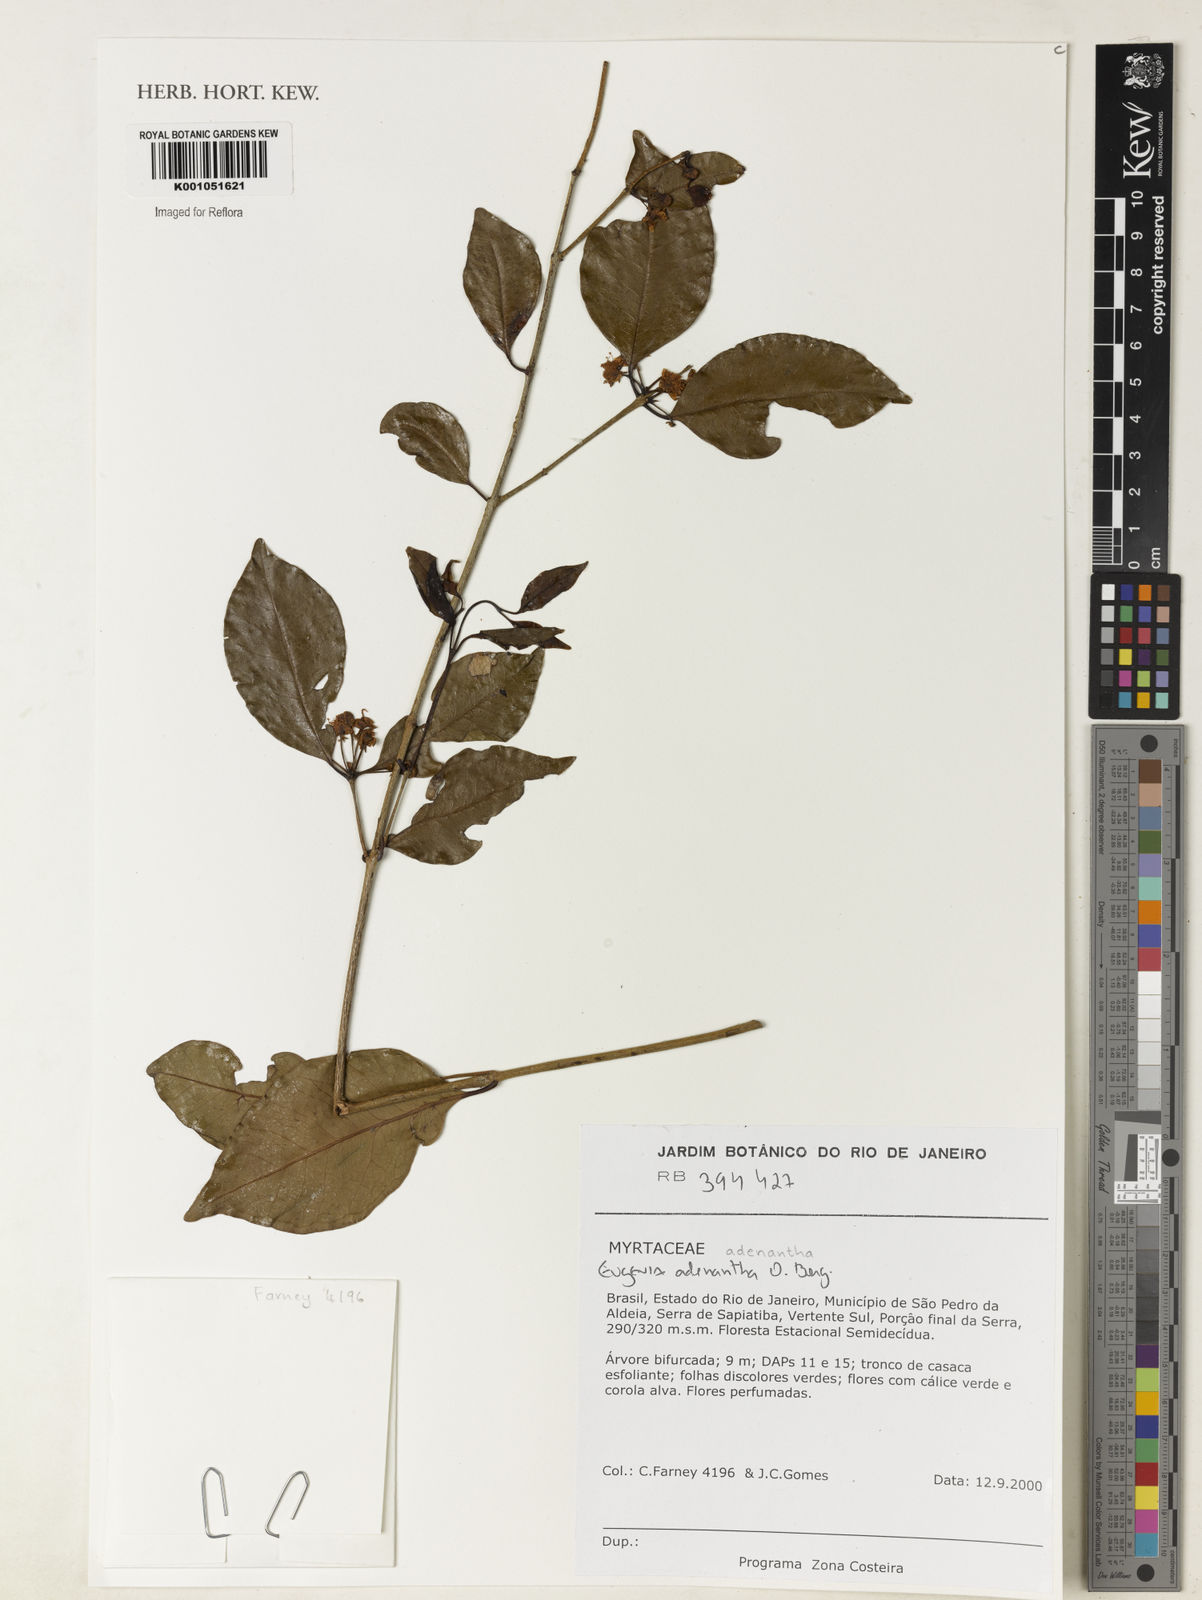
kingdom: Plantae
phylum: Tracheophyta
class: Magnoliopsida
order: Myrtales
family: Myrtaceae
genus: Eugenia
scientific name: Eugenia adenantha
